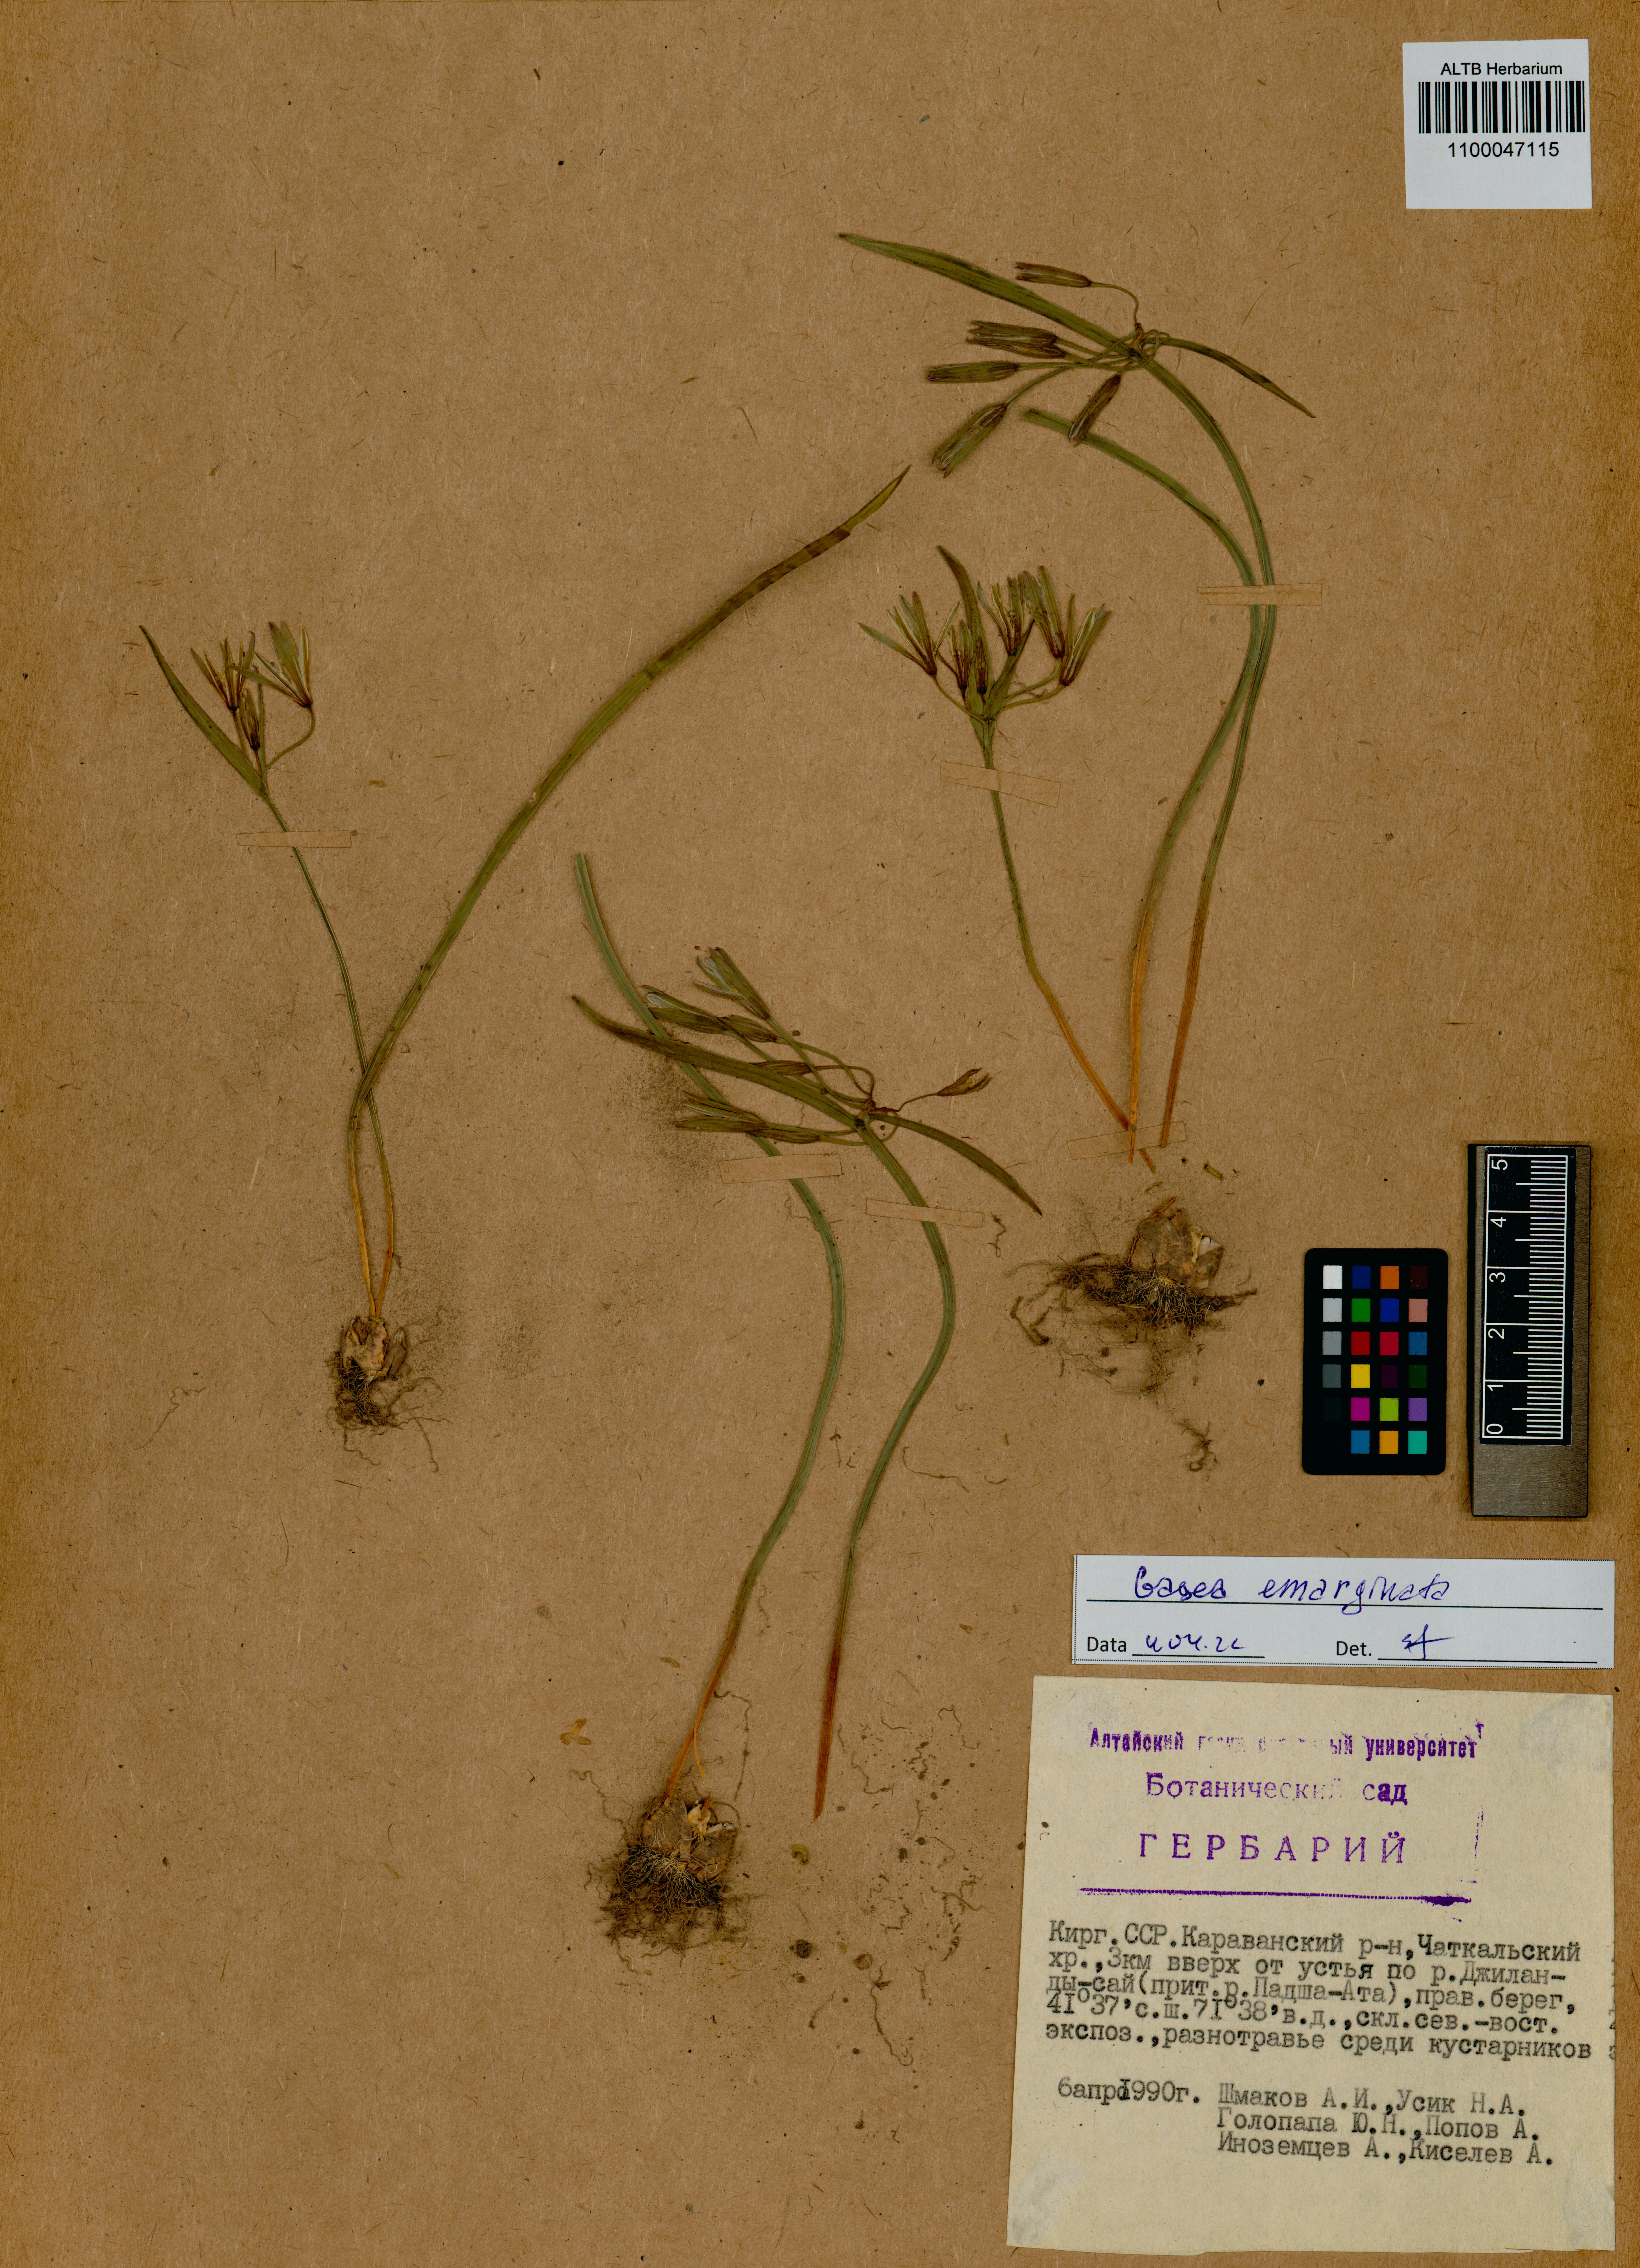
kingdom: Plantae
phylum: Tracheophyta
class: Liliopsida
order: Liliales
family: Liliaceae
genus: Gagea
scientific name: Gagea fragifera
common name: Lily
